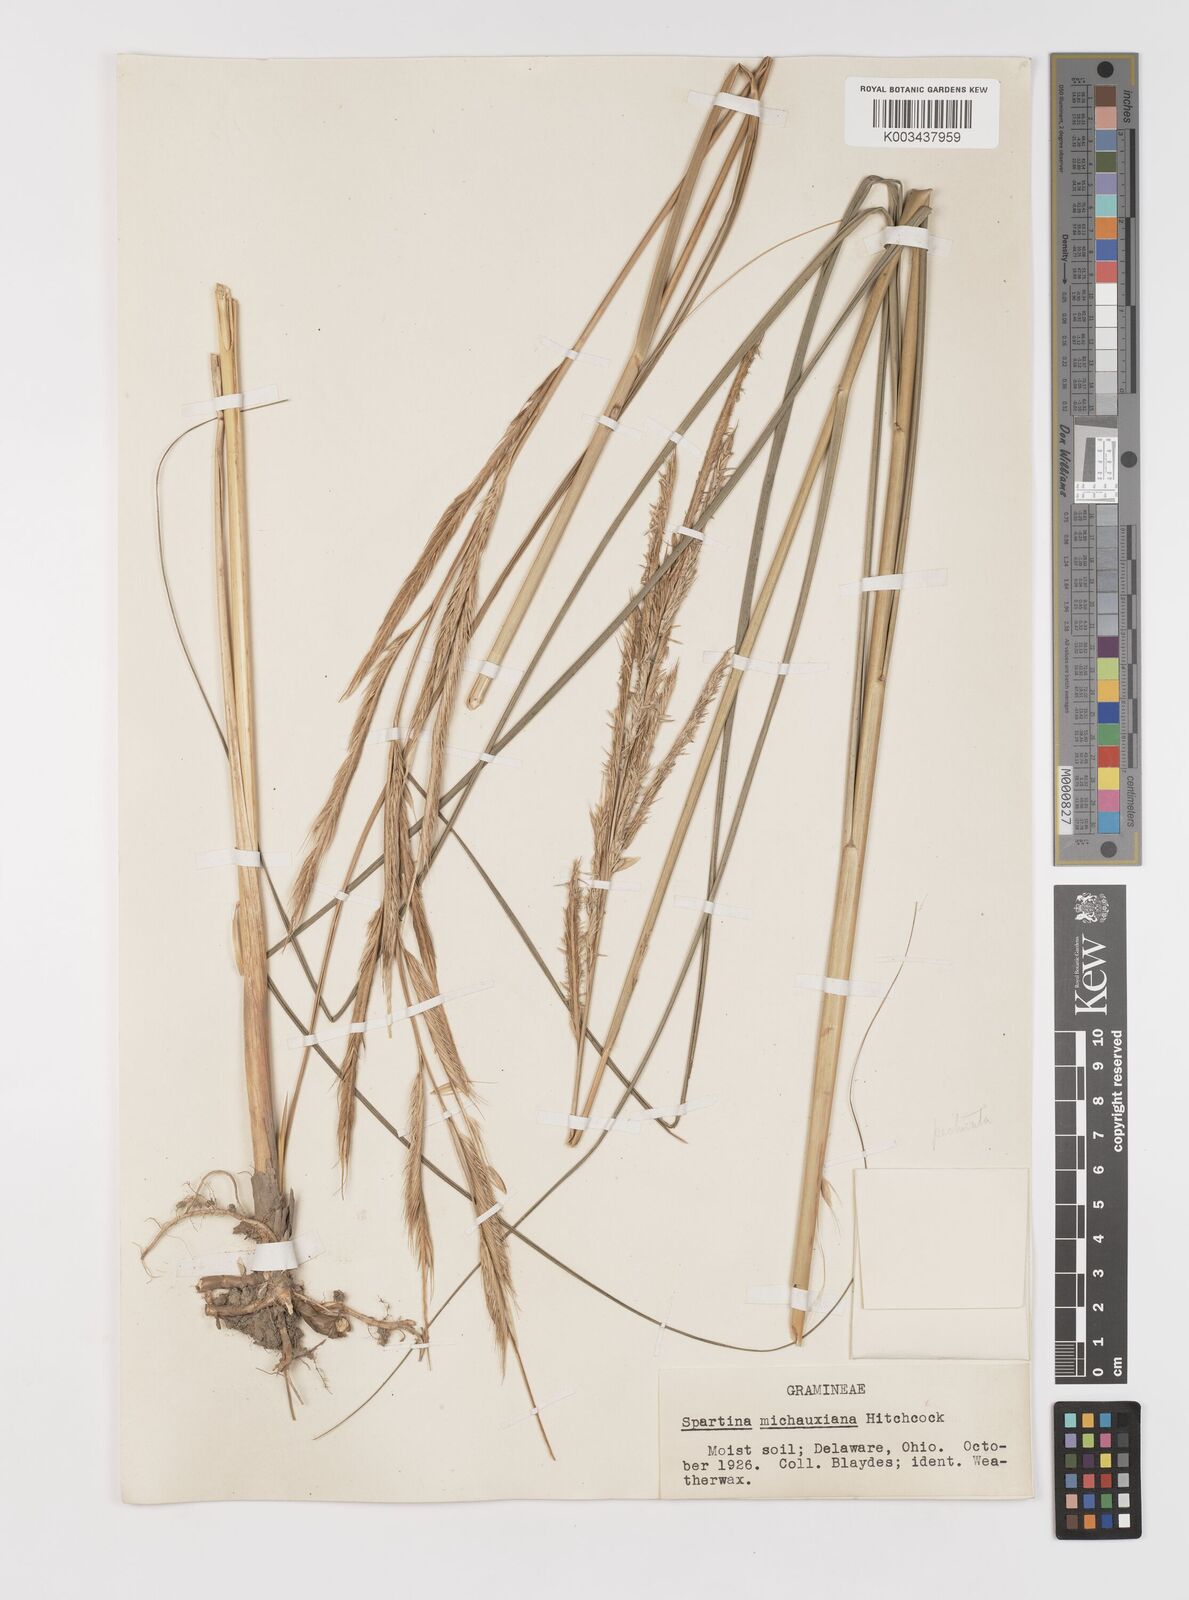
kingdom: Plantae
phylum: Tracheophyta
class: Liliopsida
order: Poales
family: Poaceae
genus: Sporobolus
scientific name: Sporobolus michauxianus
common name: Freshwater cordgrass
